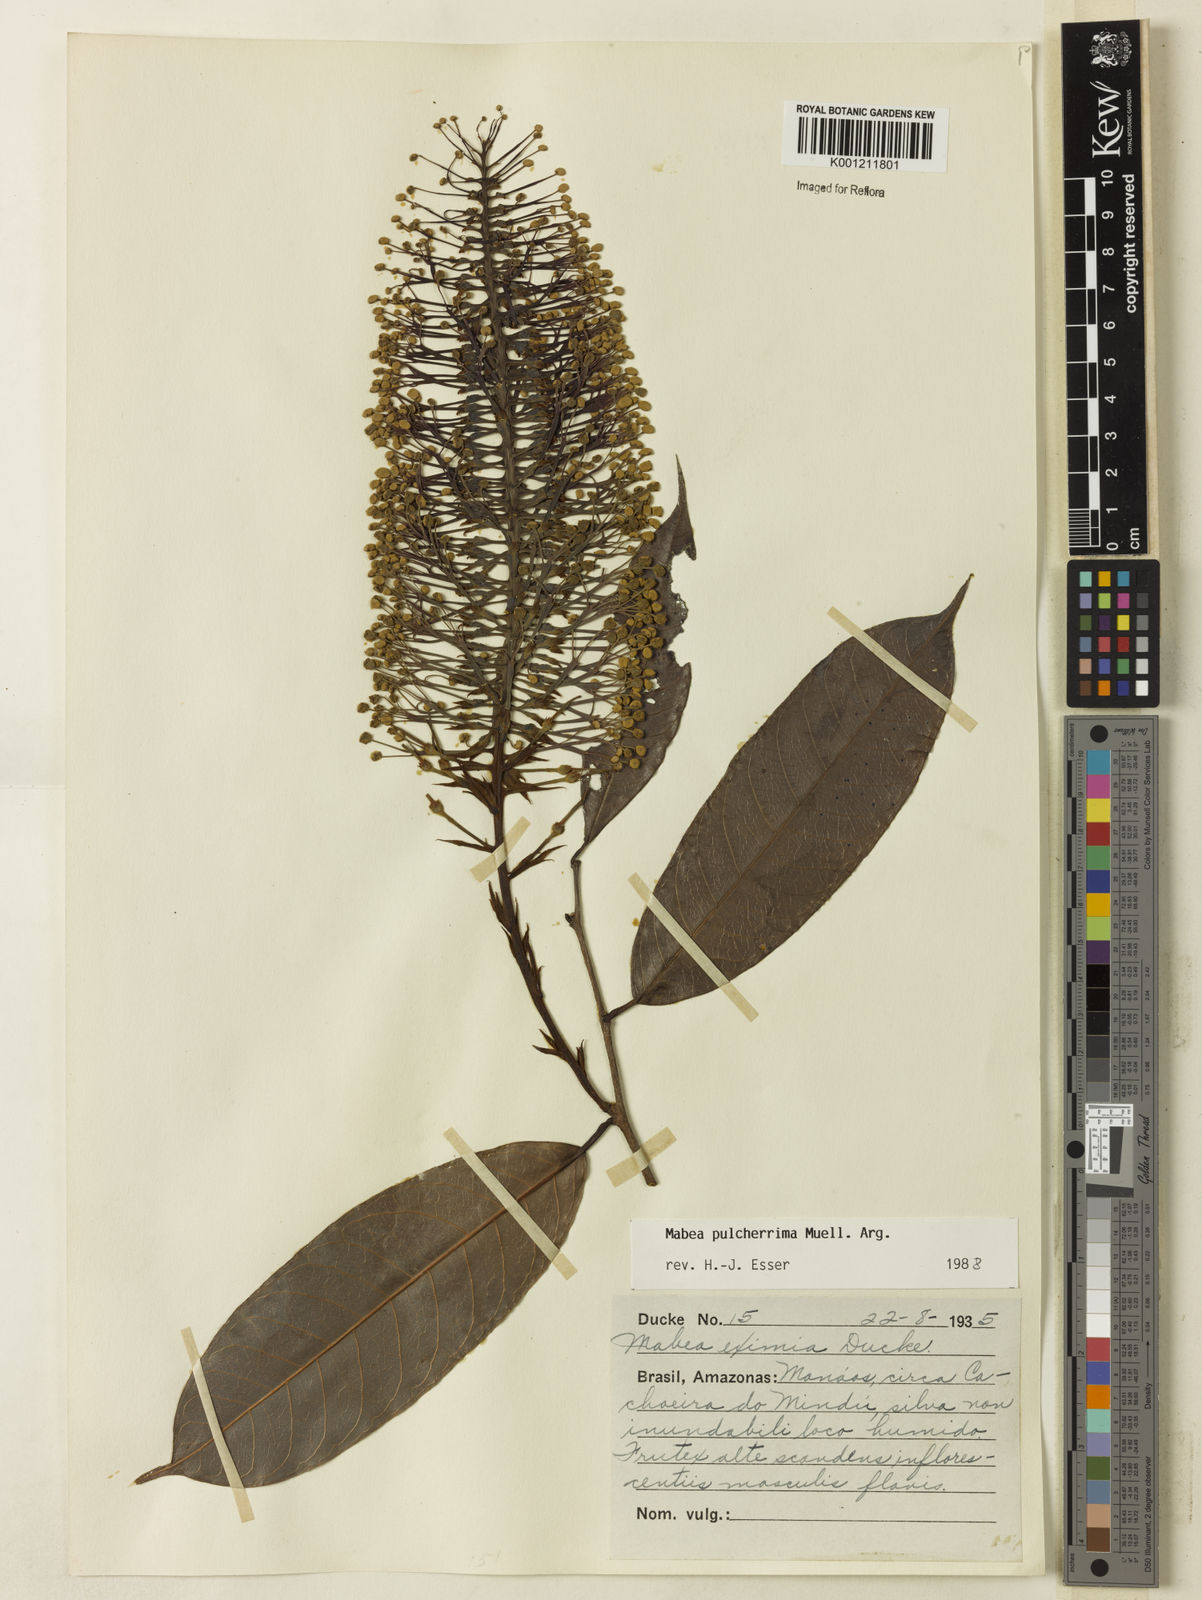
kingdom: Plantae
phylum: Tracheophyta
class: Magnoliopsida
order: Malpighiales
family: Euphorbiaceae
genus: Mabea
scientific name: Mabea
